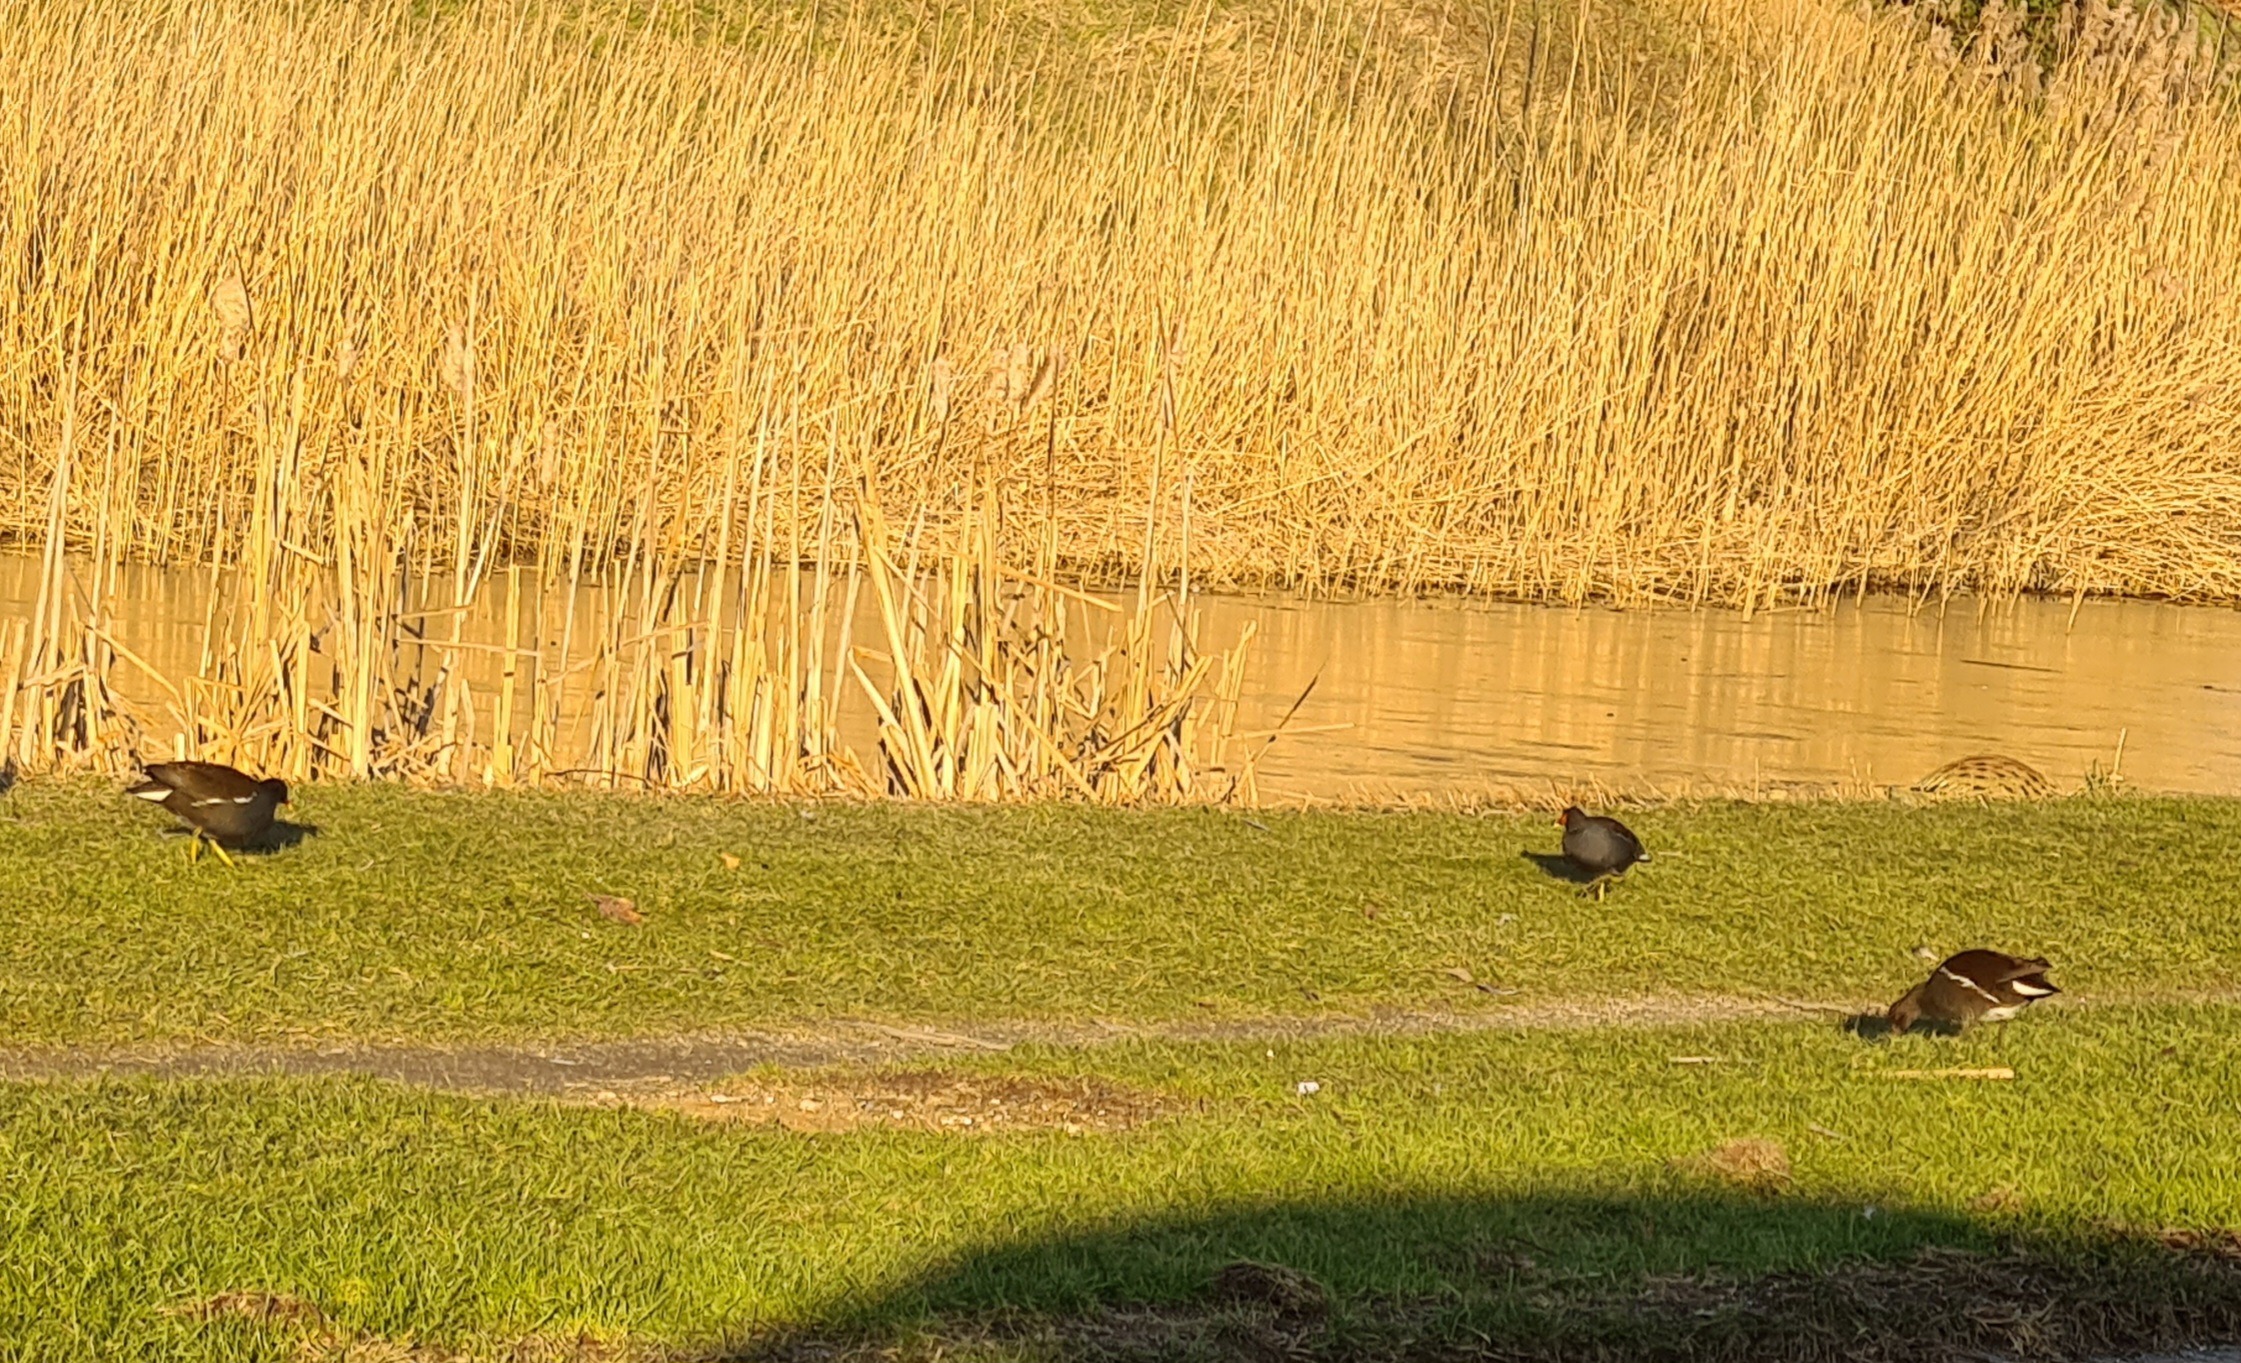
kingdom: Animalia
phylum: Chordata
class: Aves
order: Gruiformes
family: Rallidae
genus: Gallinula
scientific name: Gallinula chloropus
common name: Grønbenet rørhøne
